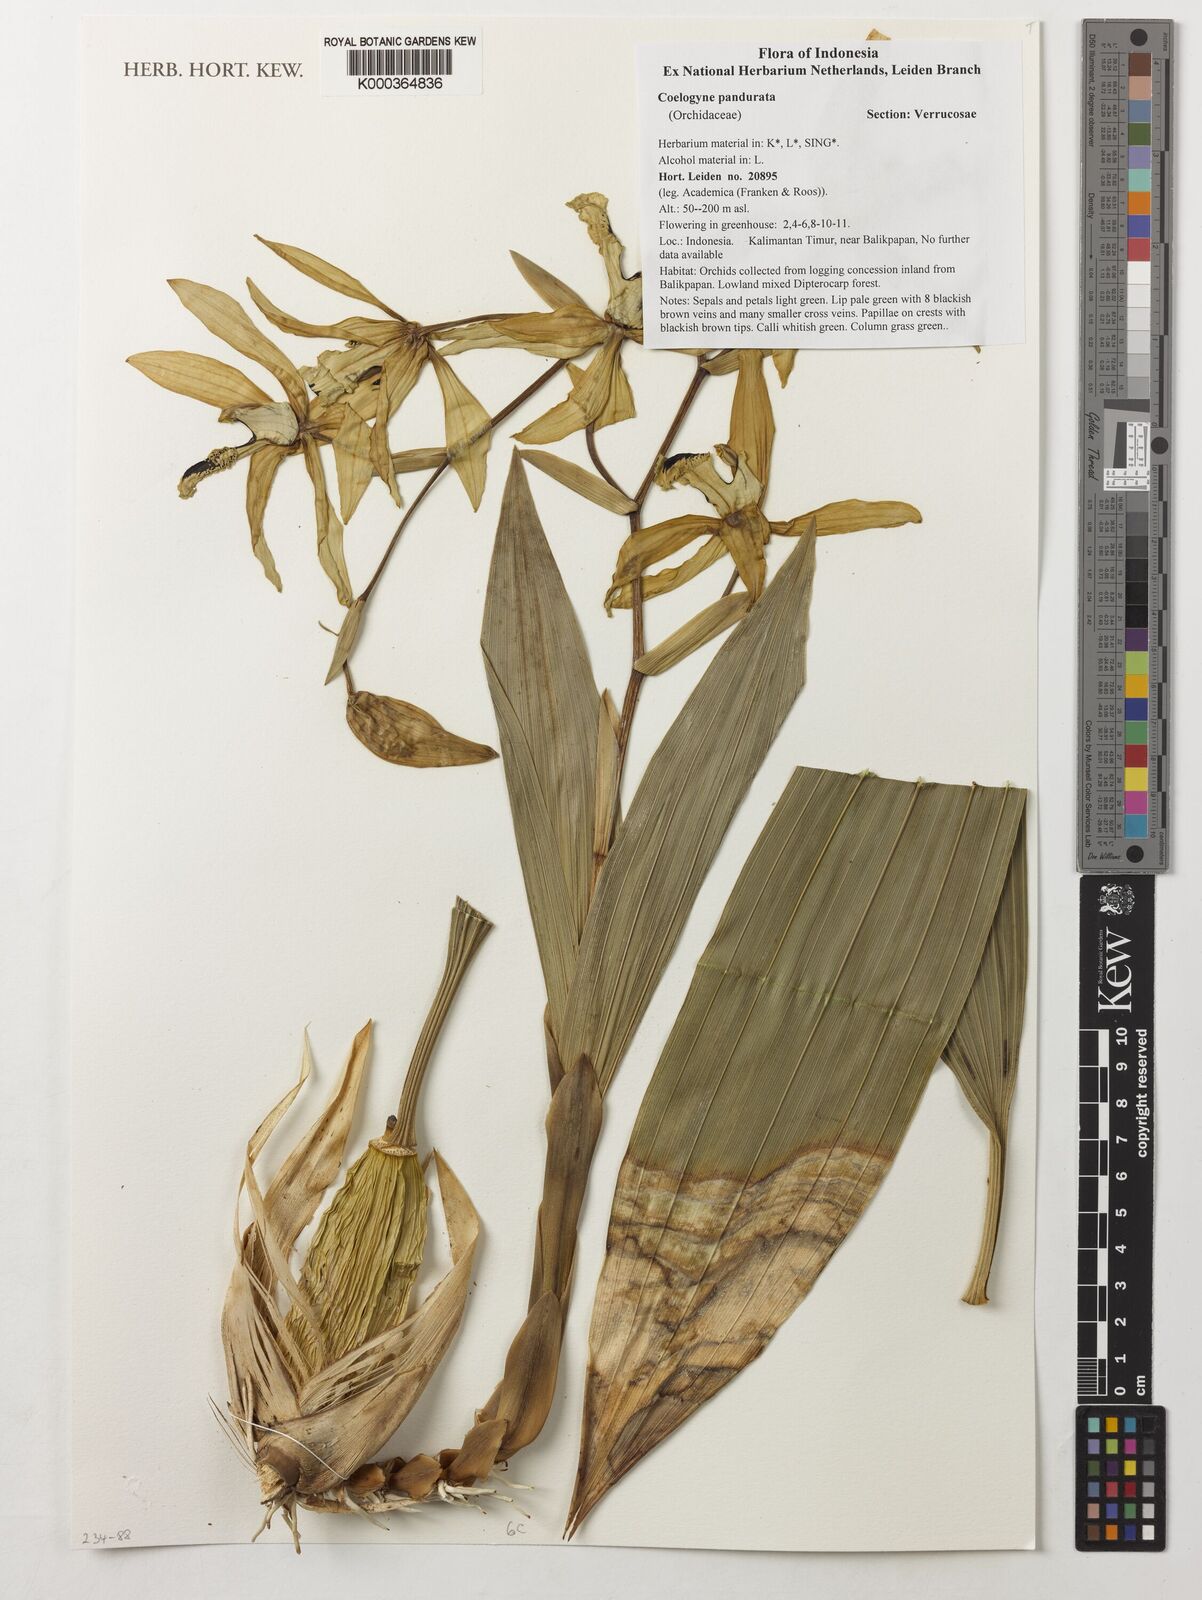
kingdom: Plantae
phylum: Tracheophyta
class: Liliopsida
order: Asparagales
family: Orchidaceae
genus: Coelogyne
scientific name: Coelogyne pandurata
